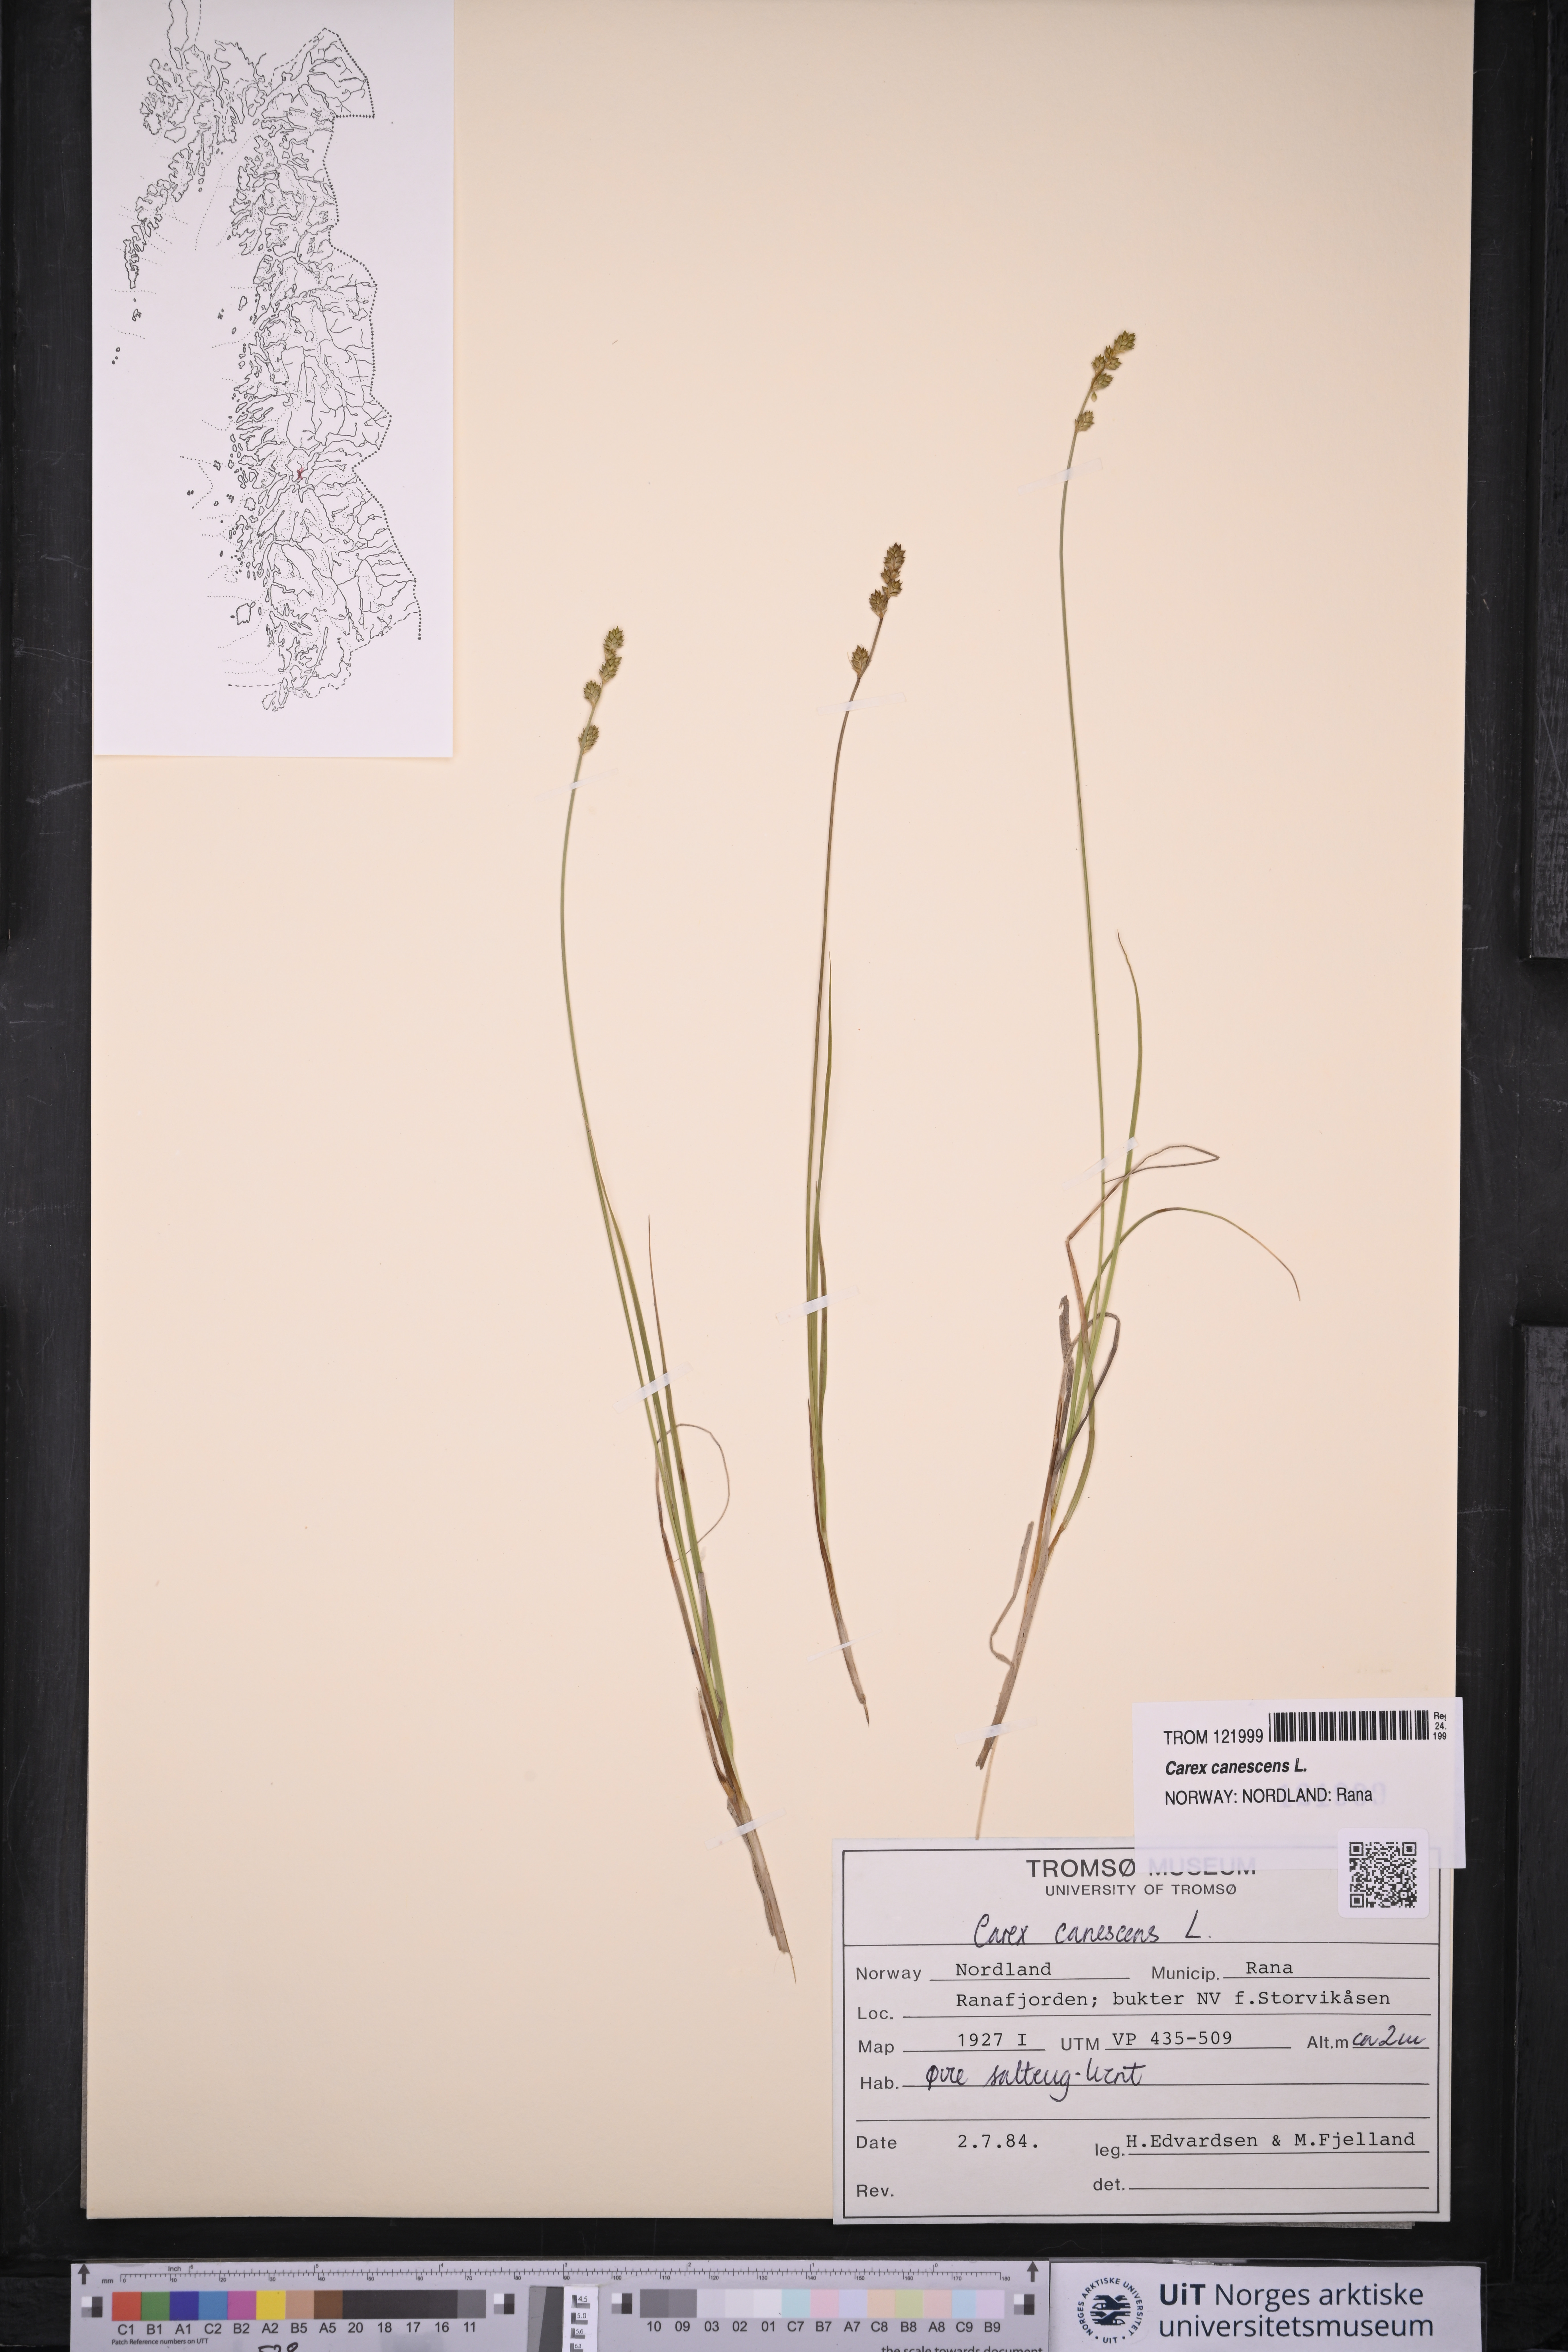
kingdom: Plantae
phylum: Tracheophyta
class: Liliopsida
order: Poales
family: Cyperaceae
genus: Carex
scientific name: Carex canescens
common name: White sedge
